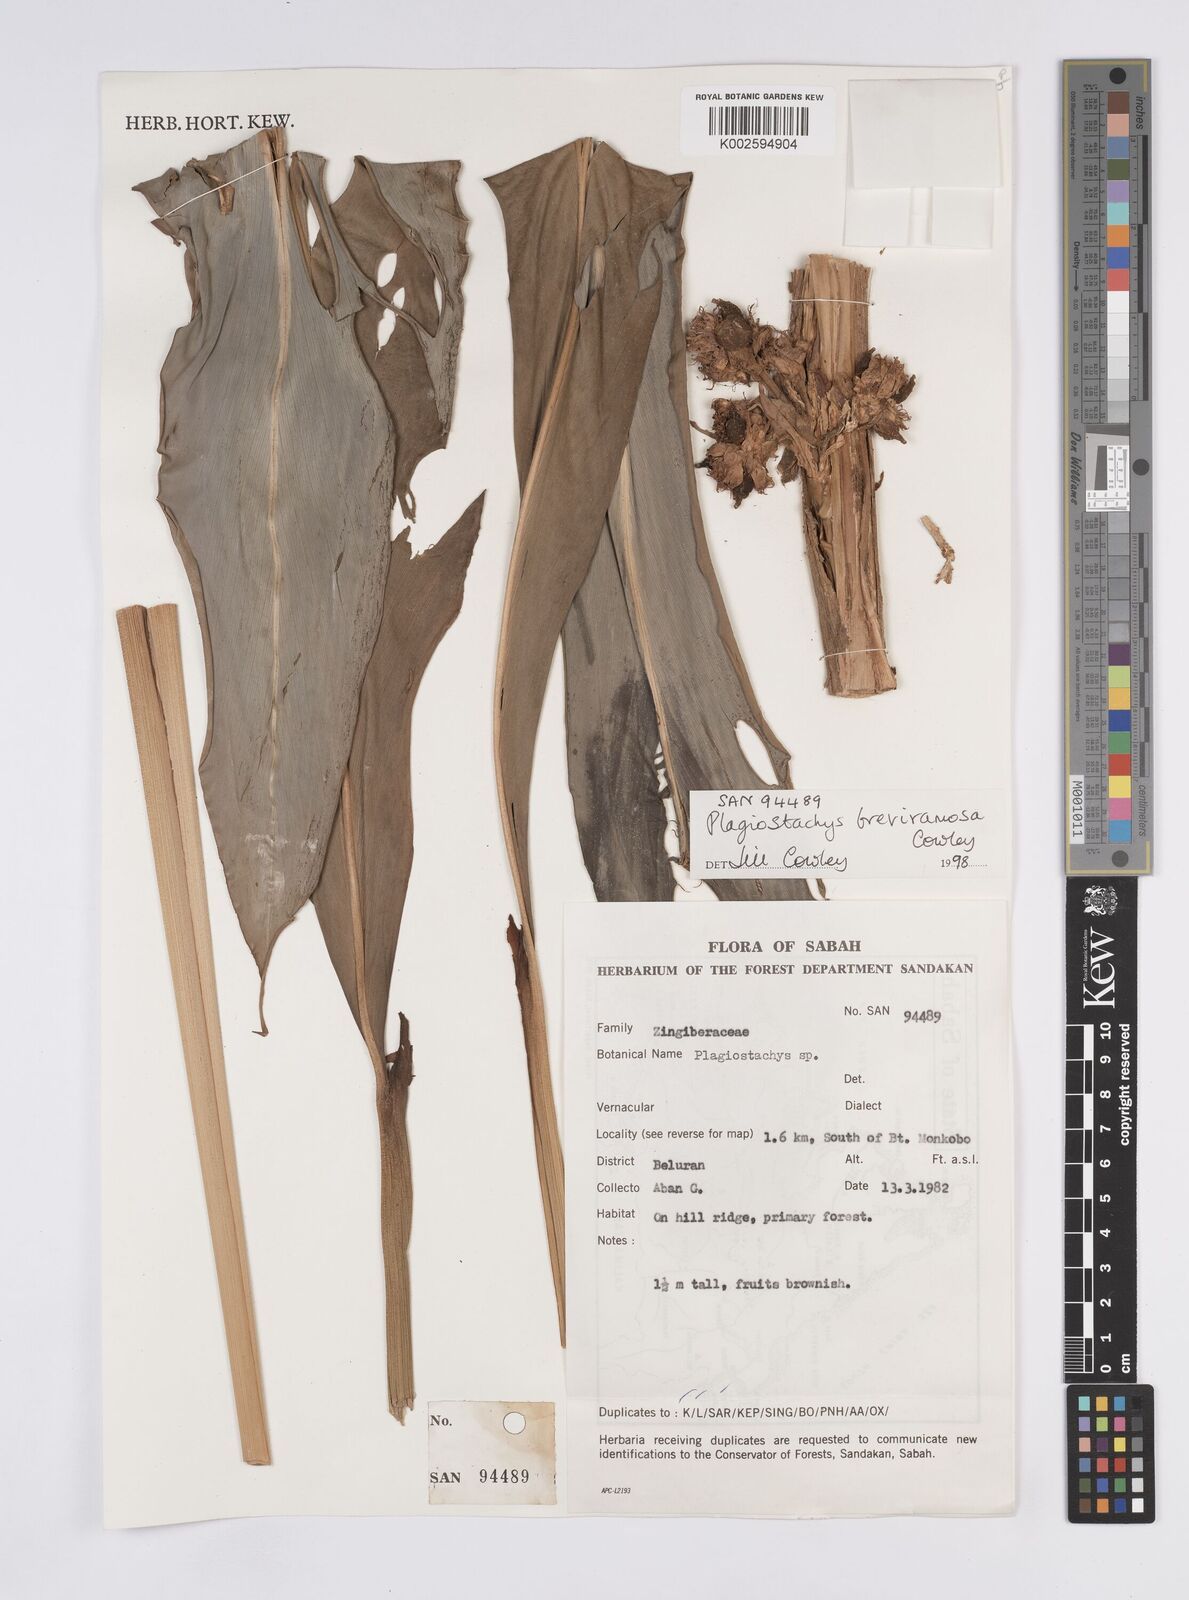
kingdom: Plantae
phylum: Tracheophyta
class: Liliopsida
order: Zingiberales
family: Zingiberaceae
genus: Plagiostachys
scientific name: Plagiostachys breviramosa
